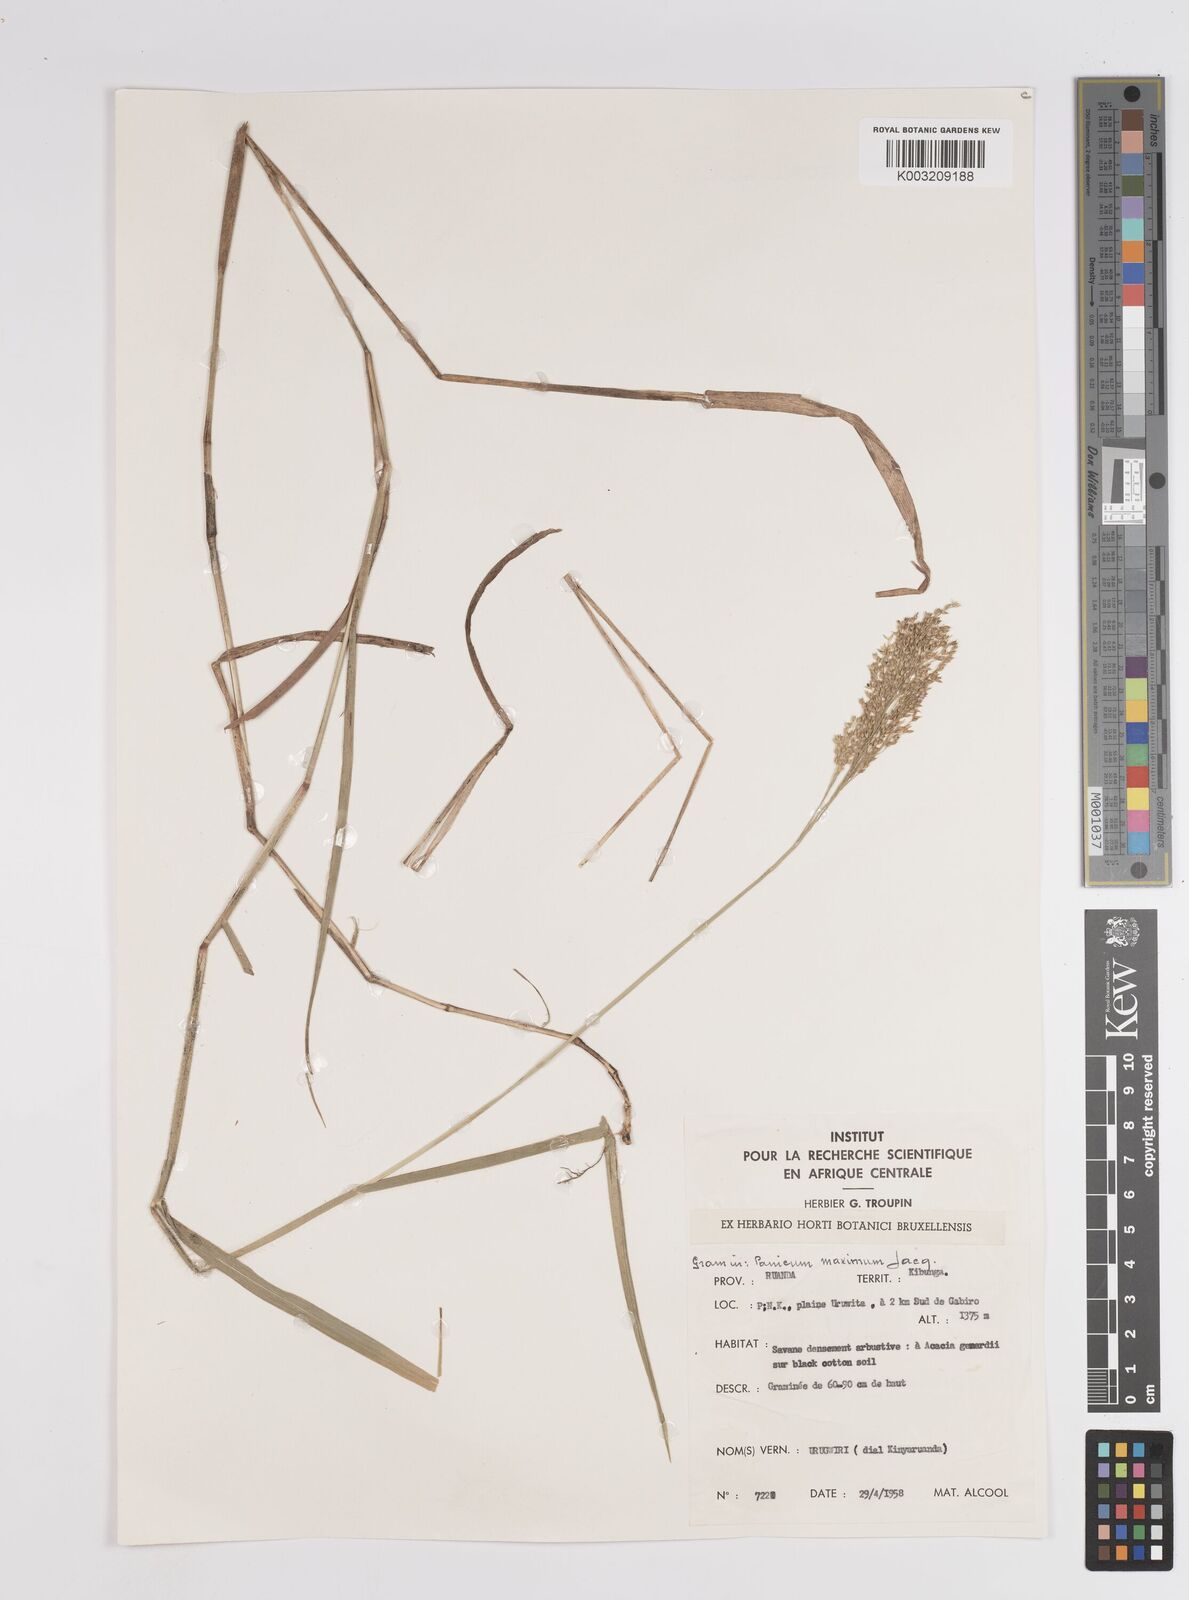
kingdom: Plantae
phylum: Tracheophyta
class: Liliopsida
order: Poales
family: Poaceae
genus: Panicum
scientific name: Panicum
